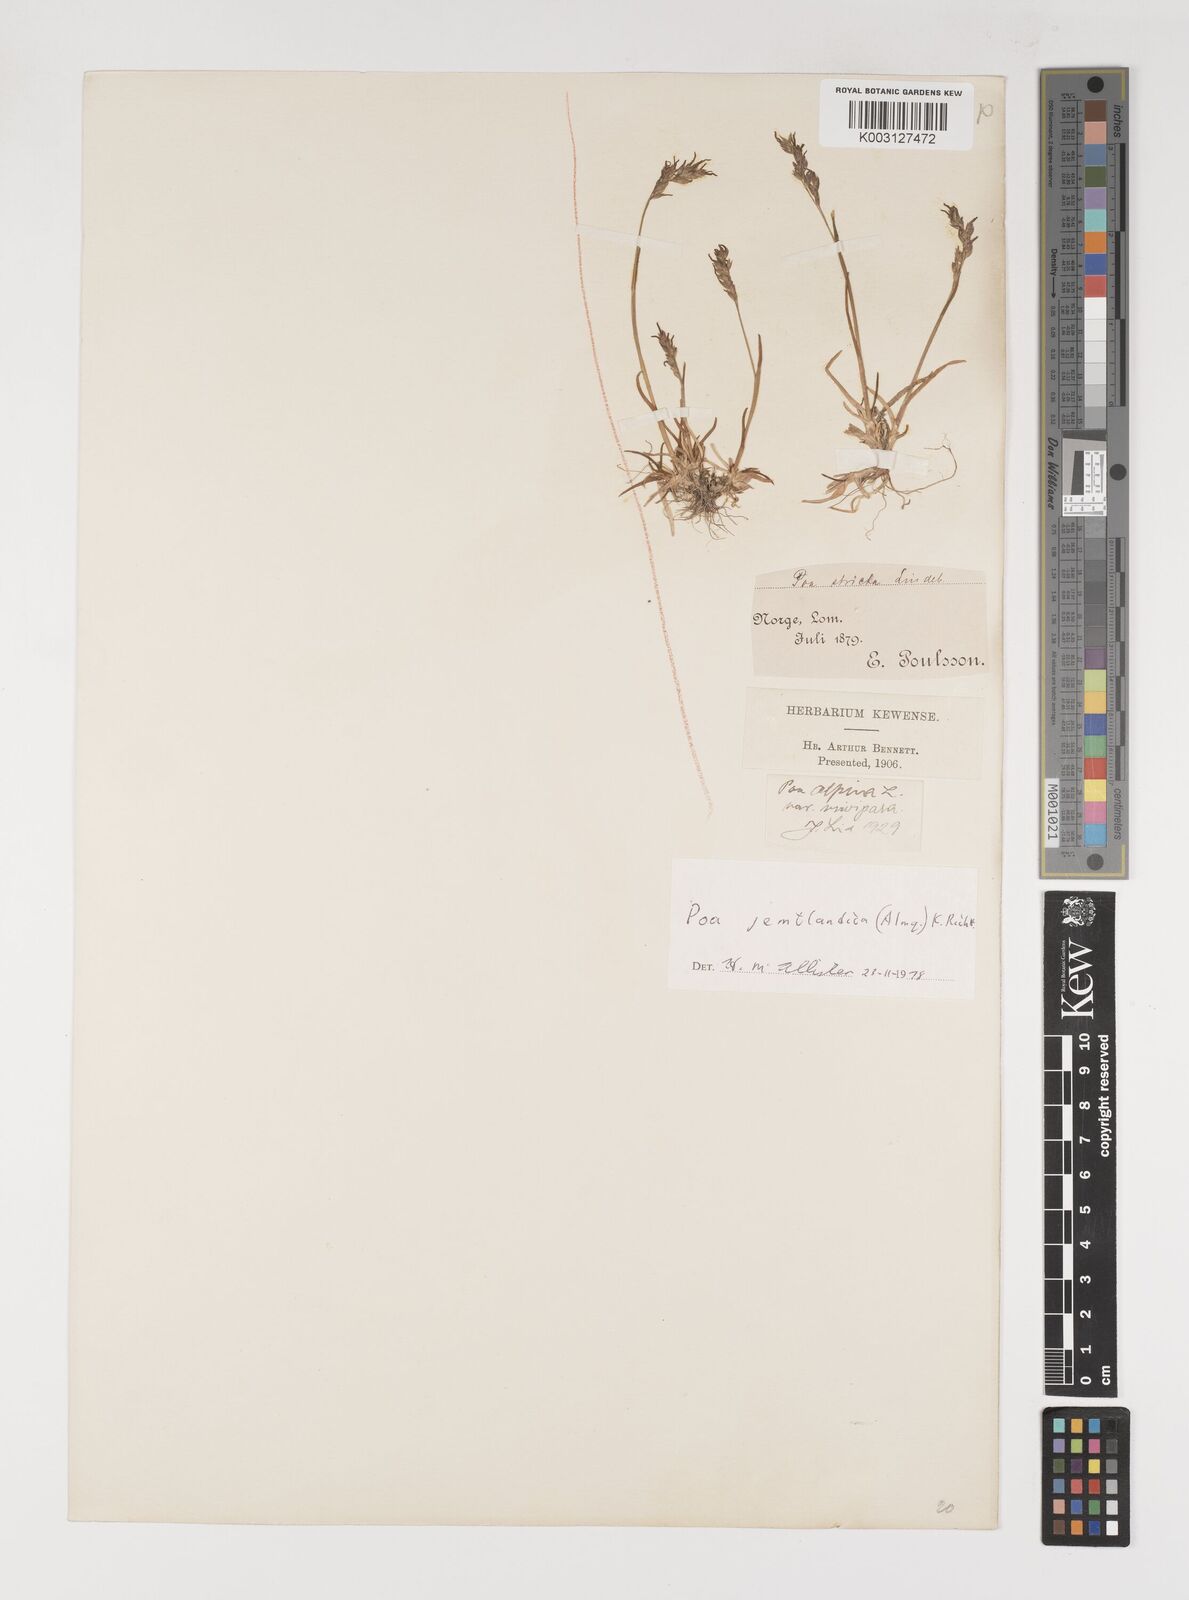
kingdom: Plantae
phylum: Tracheophyta
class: Liliopsida
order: Poales
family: Poaceae
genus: Poa
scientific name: Poa jemtlandica
